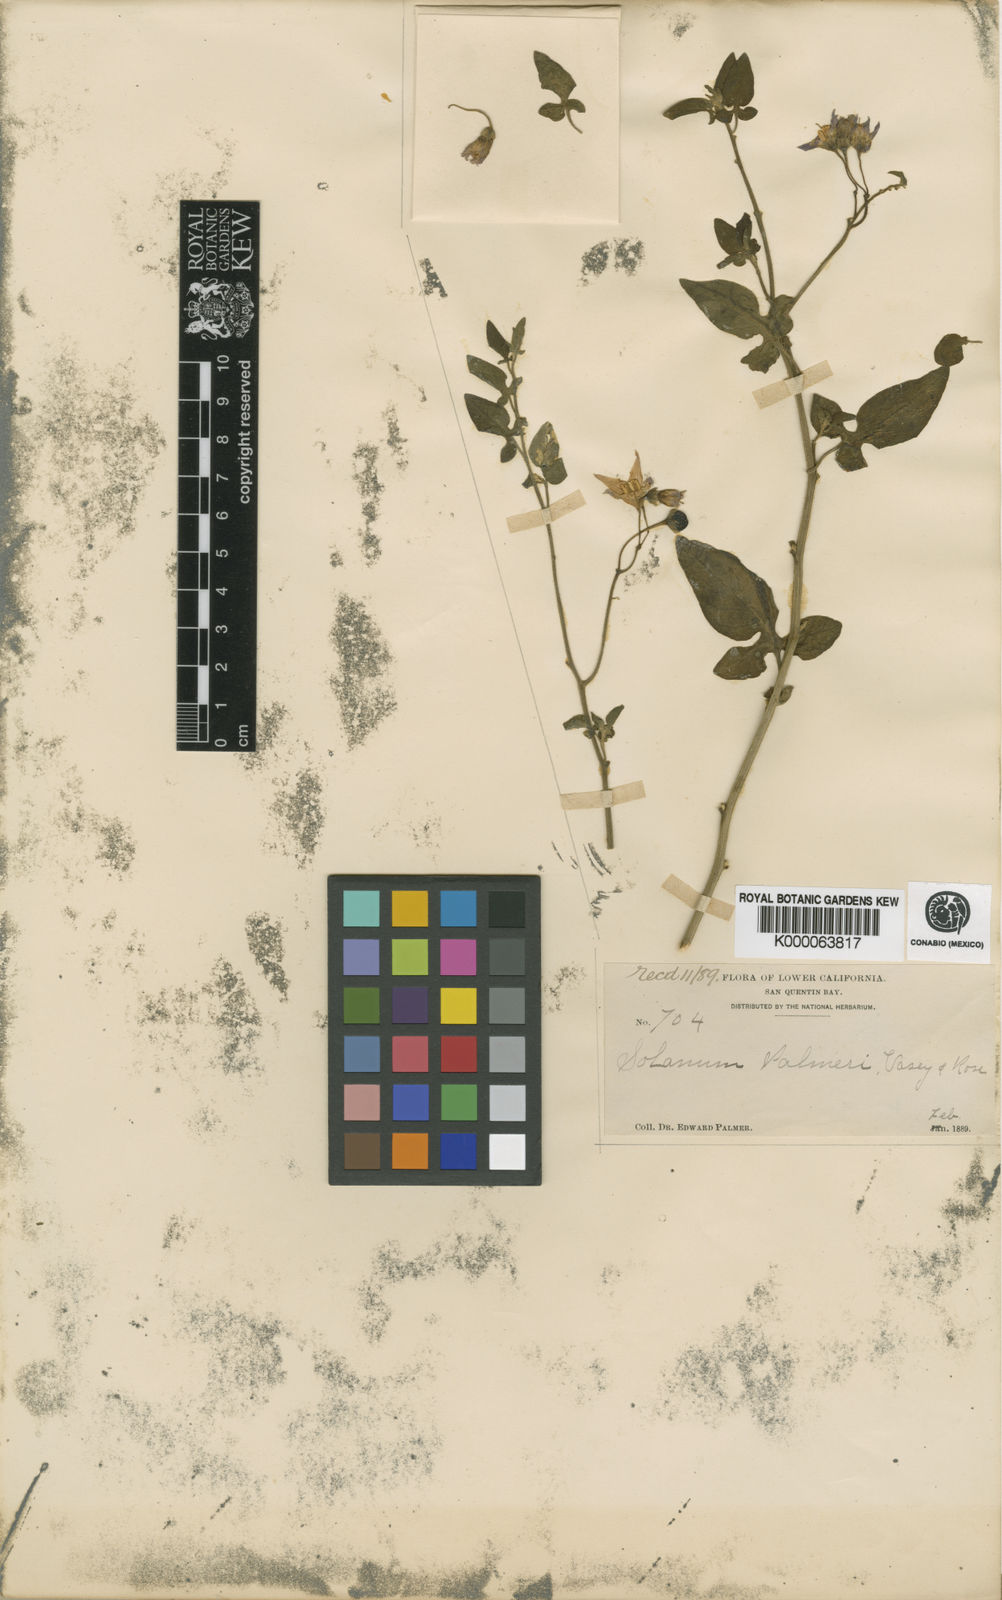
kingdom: Plantae
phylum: Tracheophyta
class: Magnoliopsida
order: Solanales
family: Solanaceae
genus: Solanum
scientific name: Solanum palmeri
